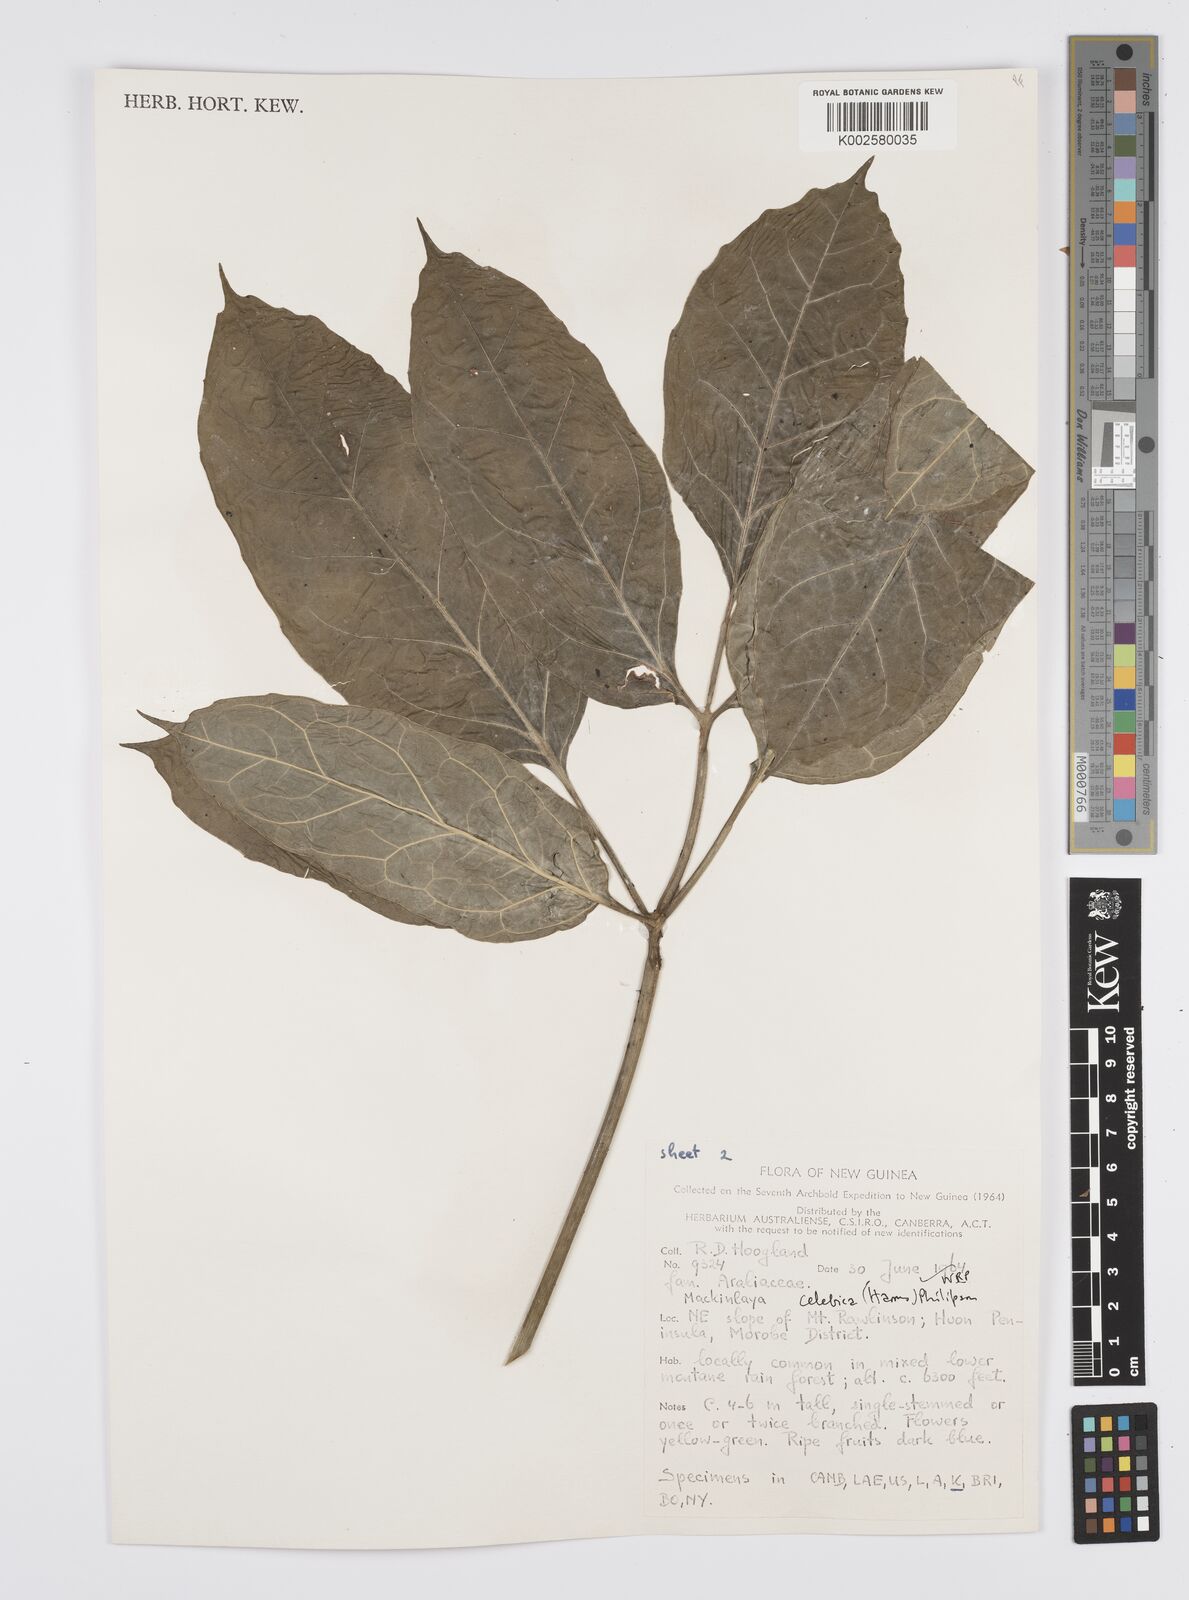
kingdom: Plantae
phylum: Tracheophyta
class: Magnoliopsida
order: Apiales
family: Apiaceae
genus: Mackinlaya
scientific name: Mackinlaya celebica
